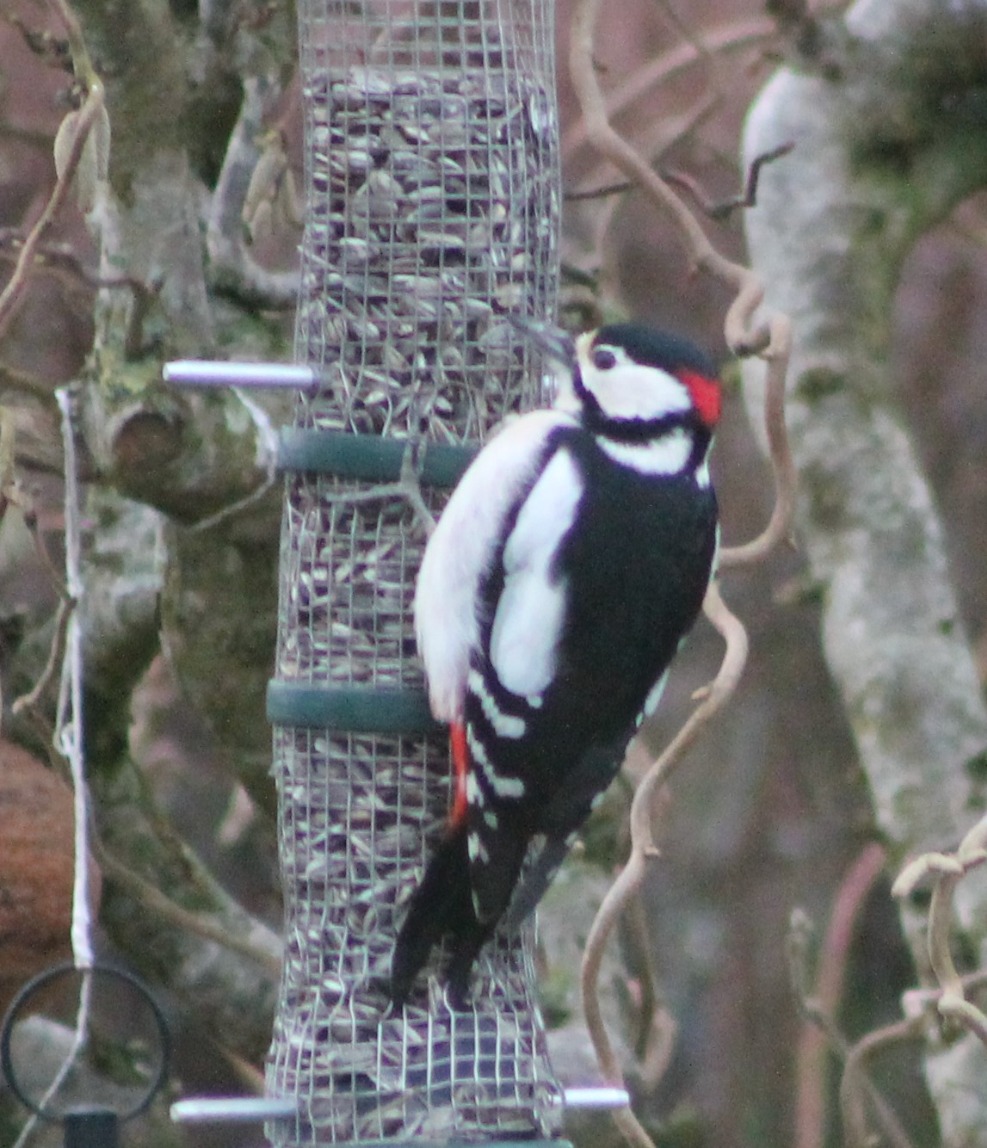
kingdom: Animalia
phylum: Chordata
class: Aves
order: Piciformes
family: Picidae
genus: Dendrocopos
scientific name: Dendrocopos major
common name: Stor flagspætte
